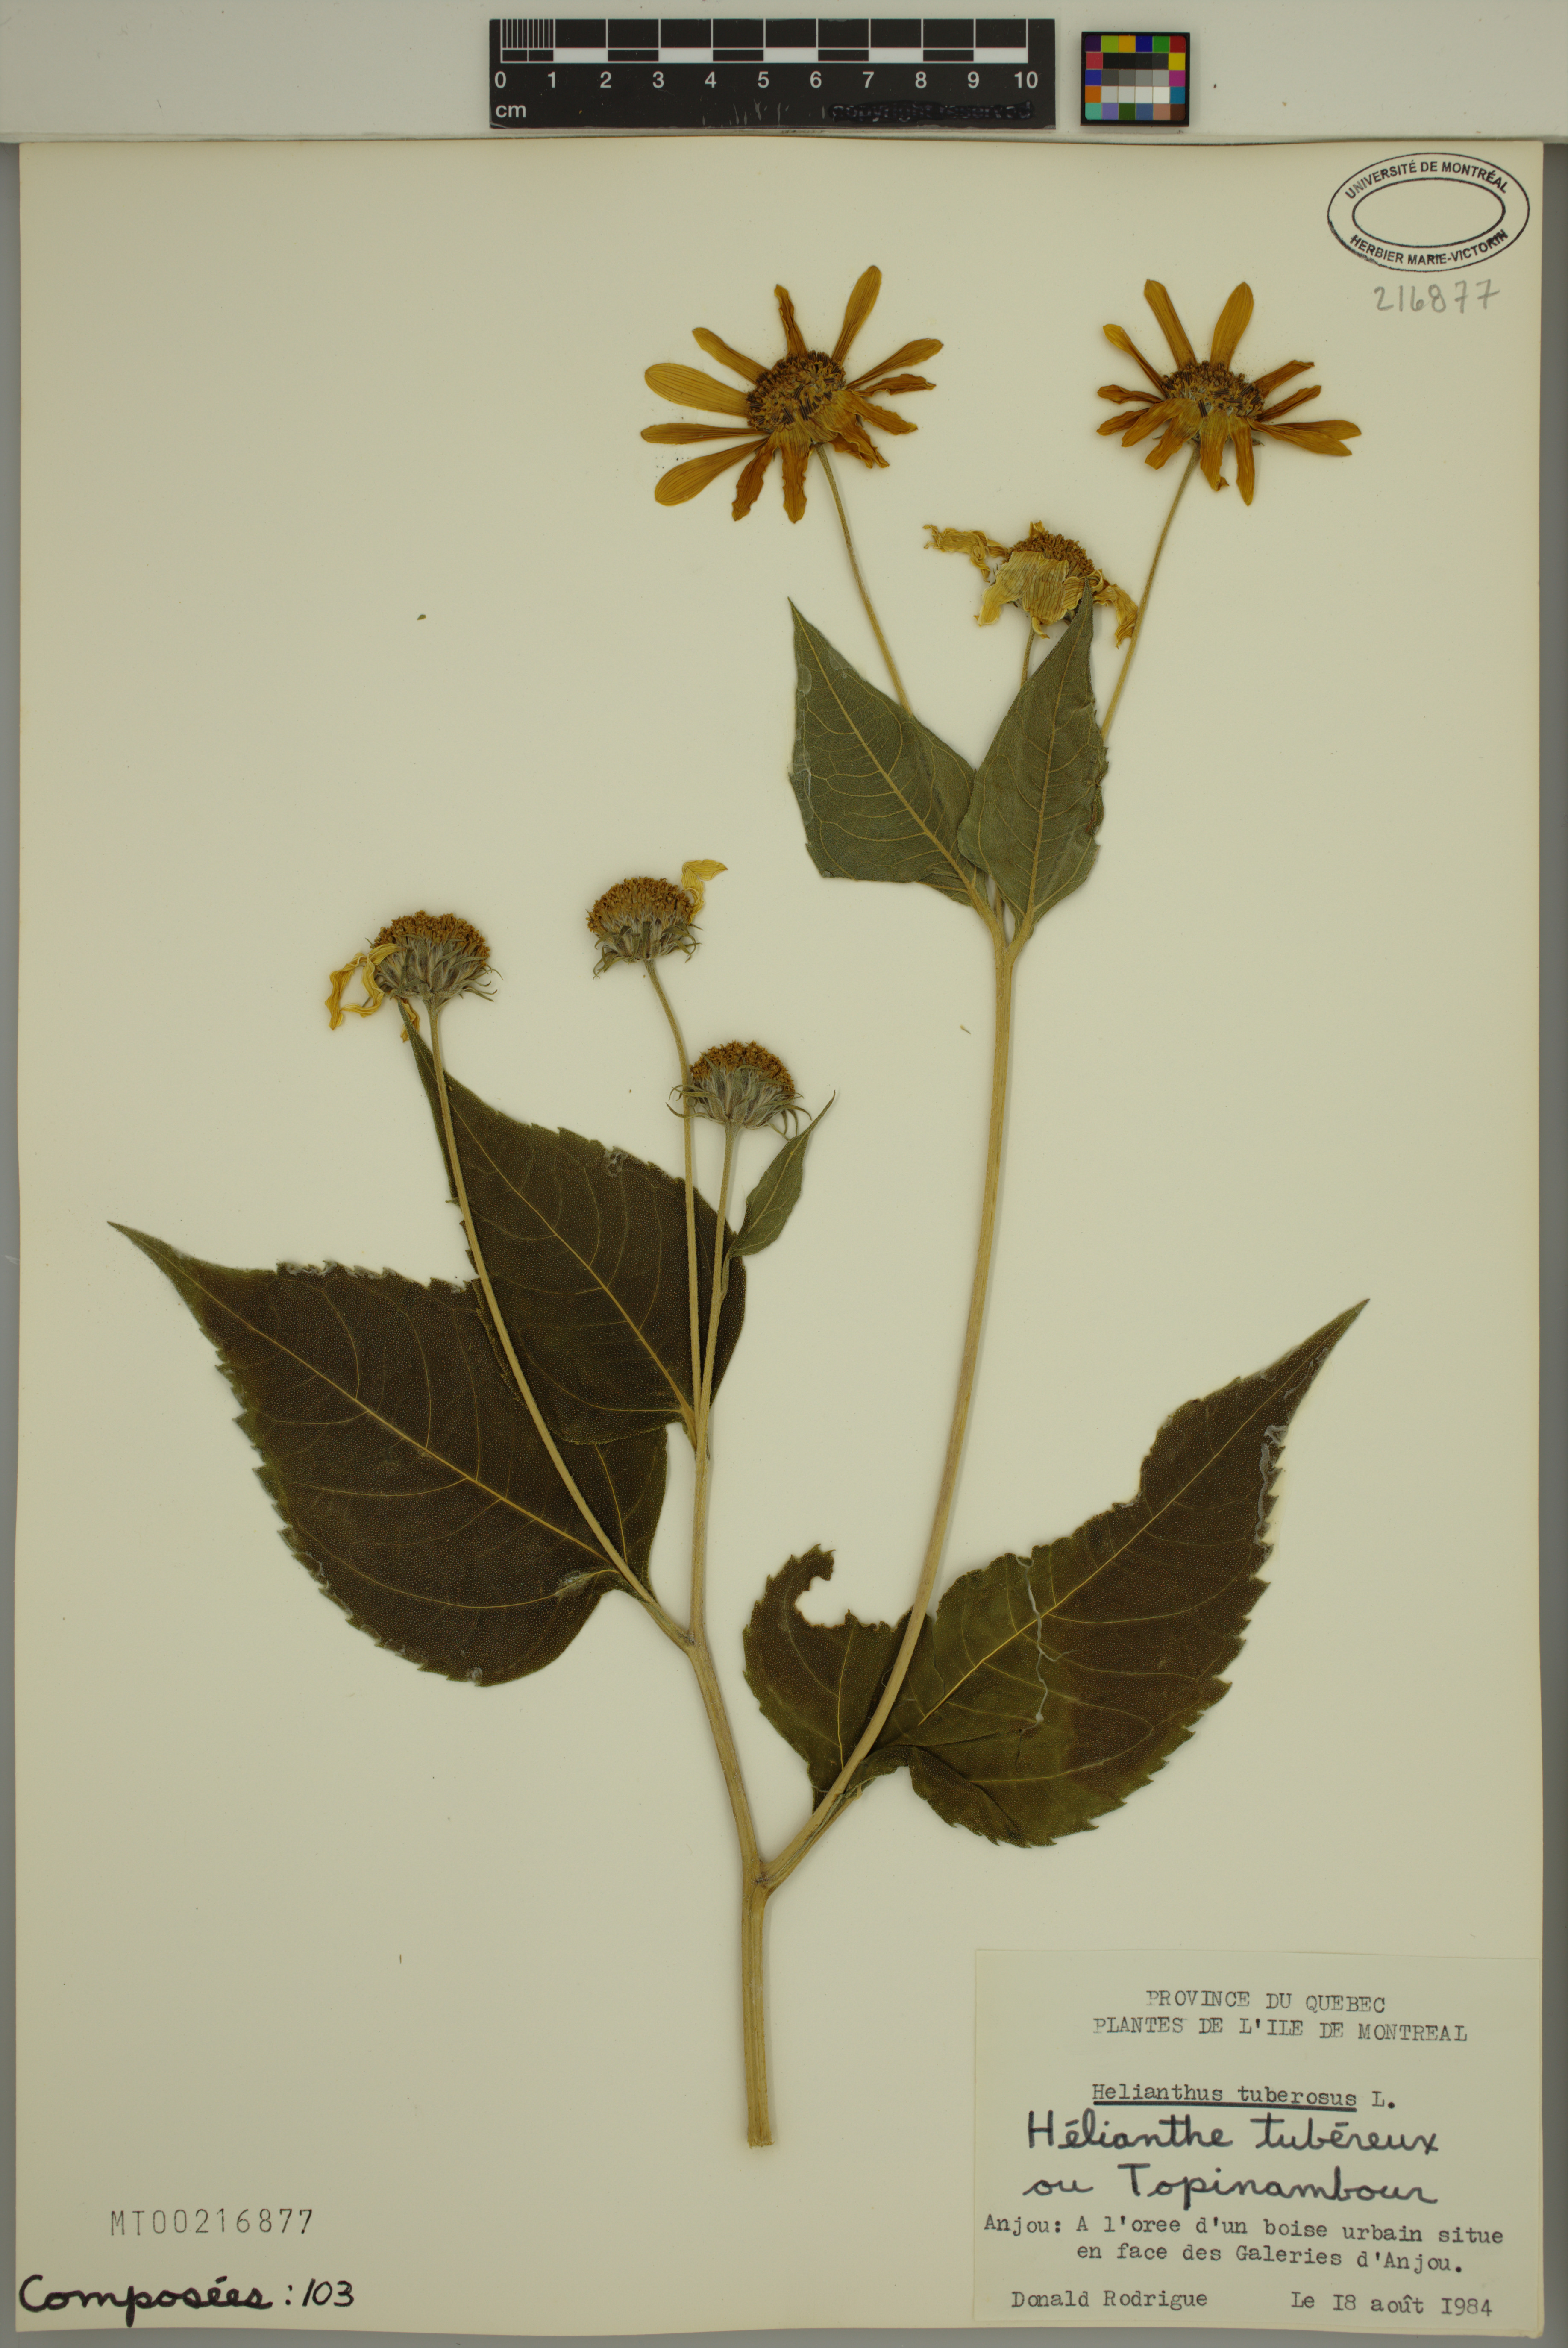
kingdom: Plantae
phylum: Tracheophyta
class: Magnoliopsida
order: Asterales
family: Asteraceae
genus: Helianthus
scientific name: Helianthus tuberosus
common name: Jerusalem artichoke
